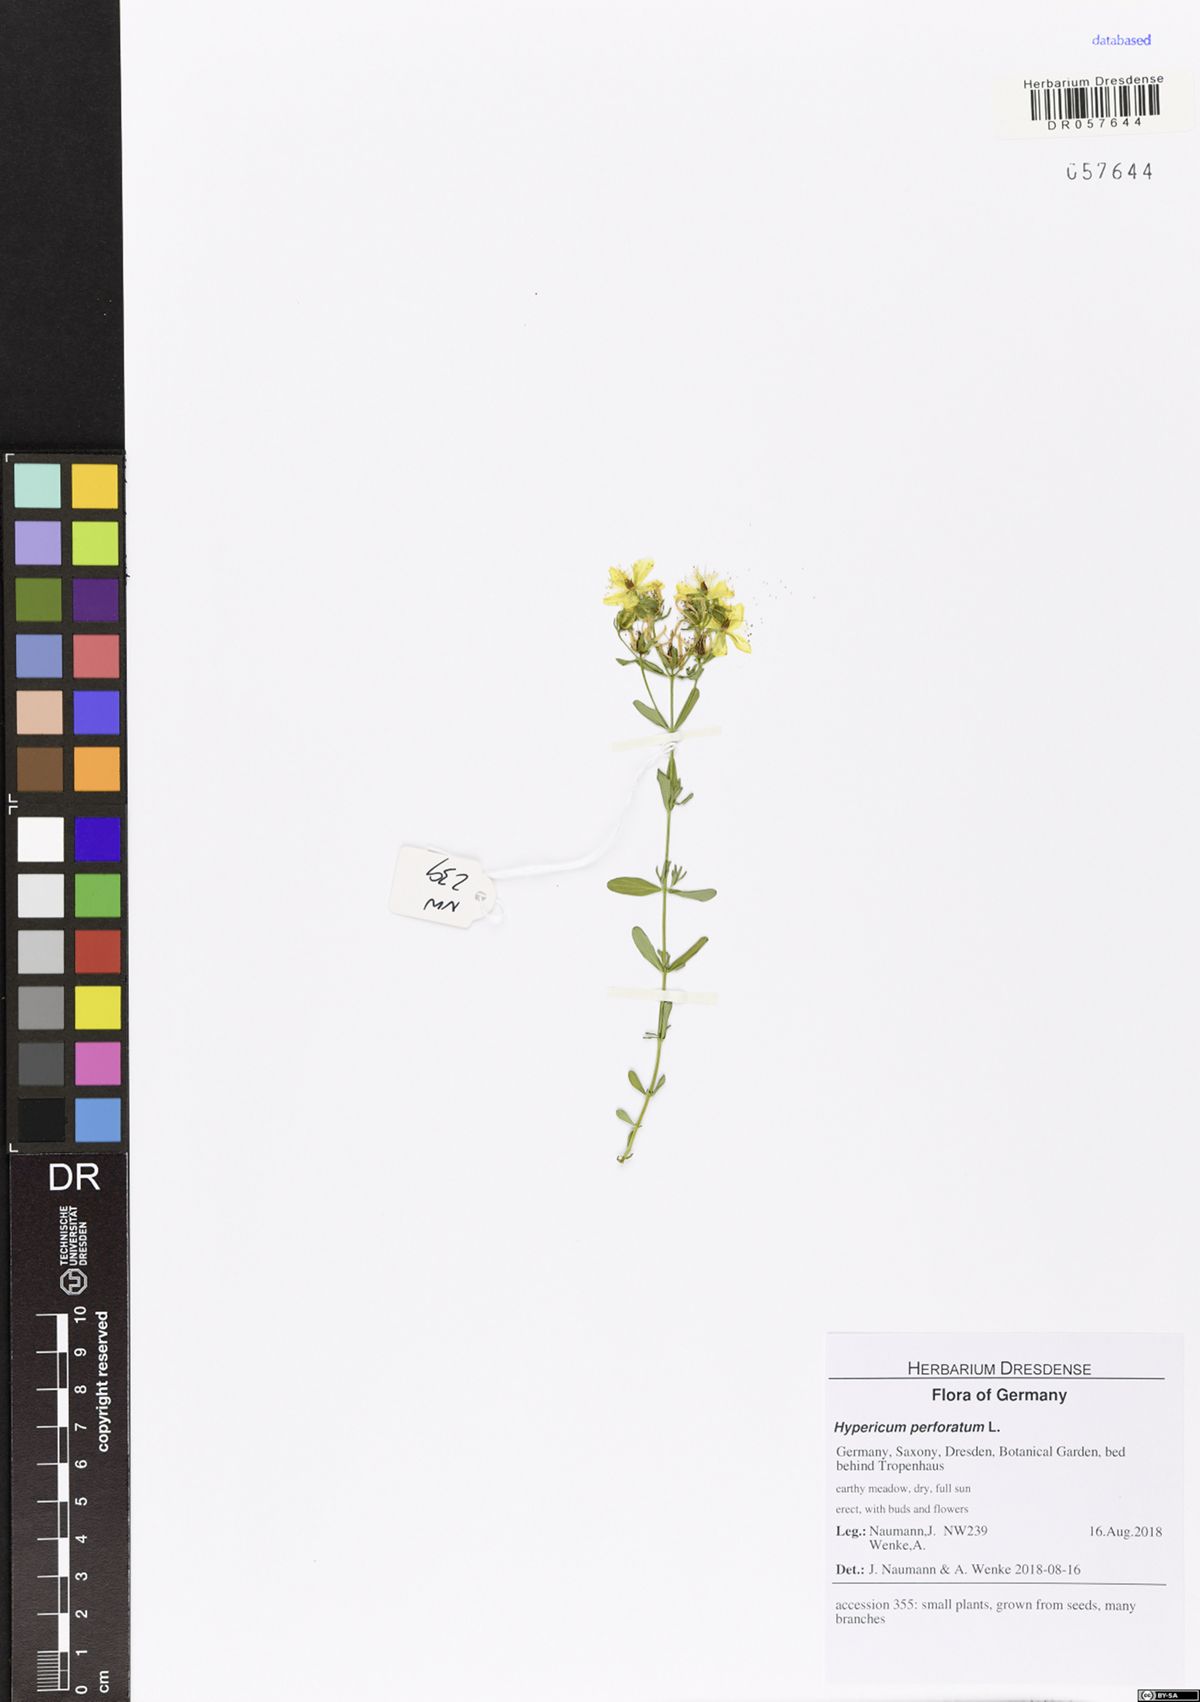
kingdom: Plantae
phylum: Tracheophyta
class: Magnoliopsida
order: Malpighiales
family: Hypericaceae
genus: Hypericum
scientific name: Hypericum perforatum
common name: Common st. johnswort
